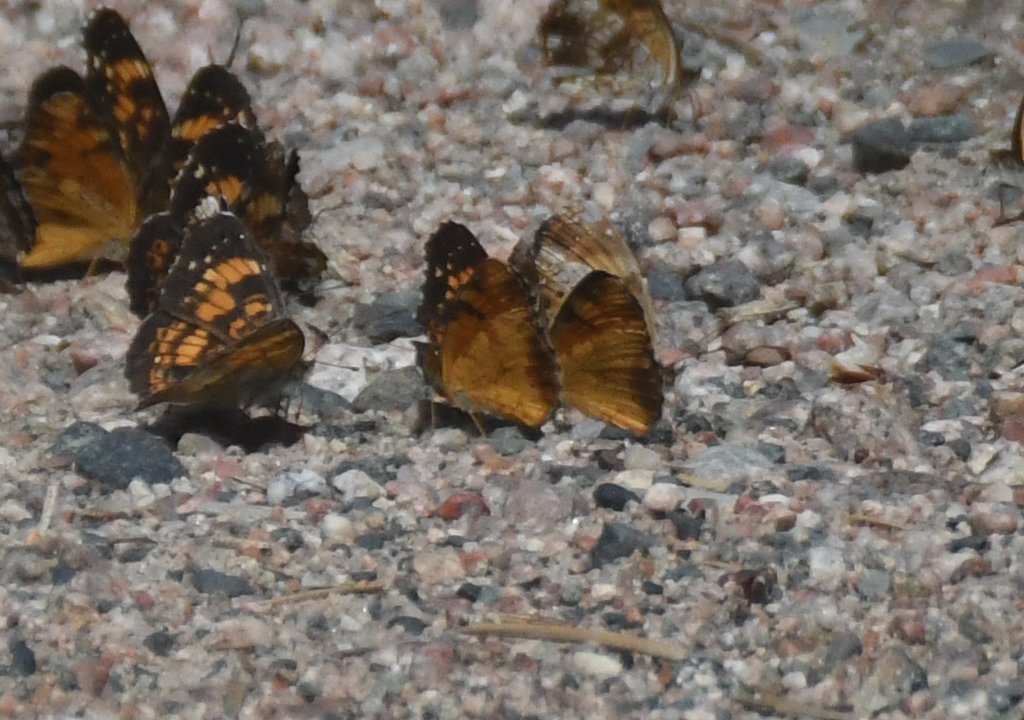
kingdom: Animalia
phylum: Arthropoda
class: Insecta
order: Lepidoptera
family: Nymphalidae
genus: Phyciodes
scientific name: Phyciodes tharos
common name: Northern Crescent
